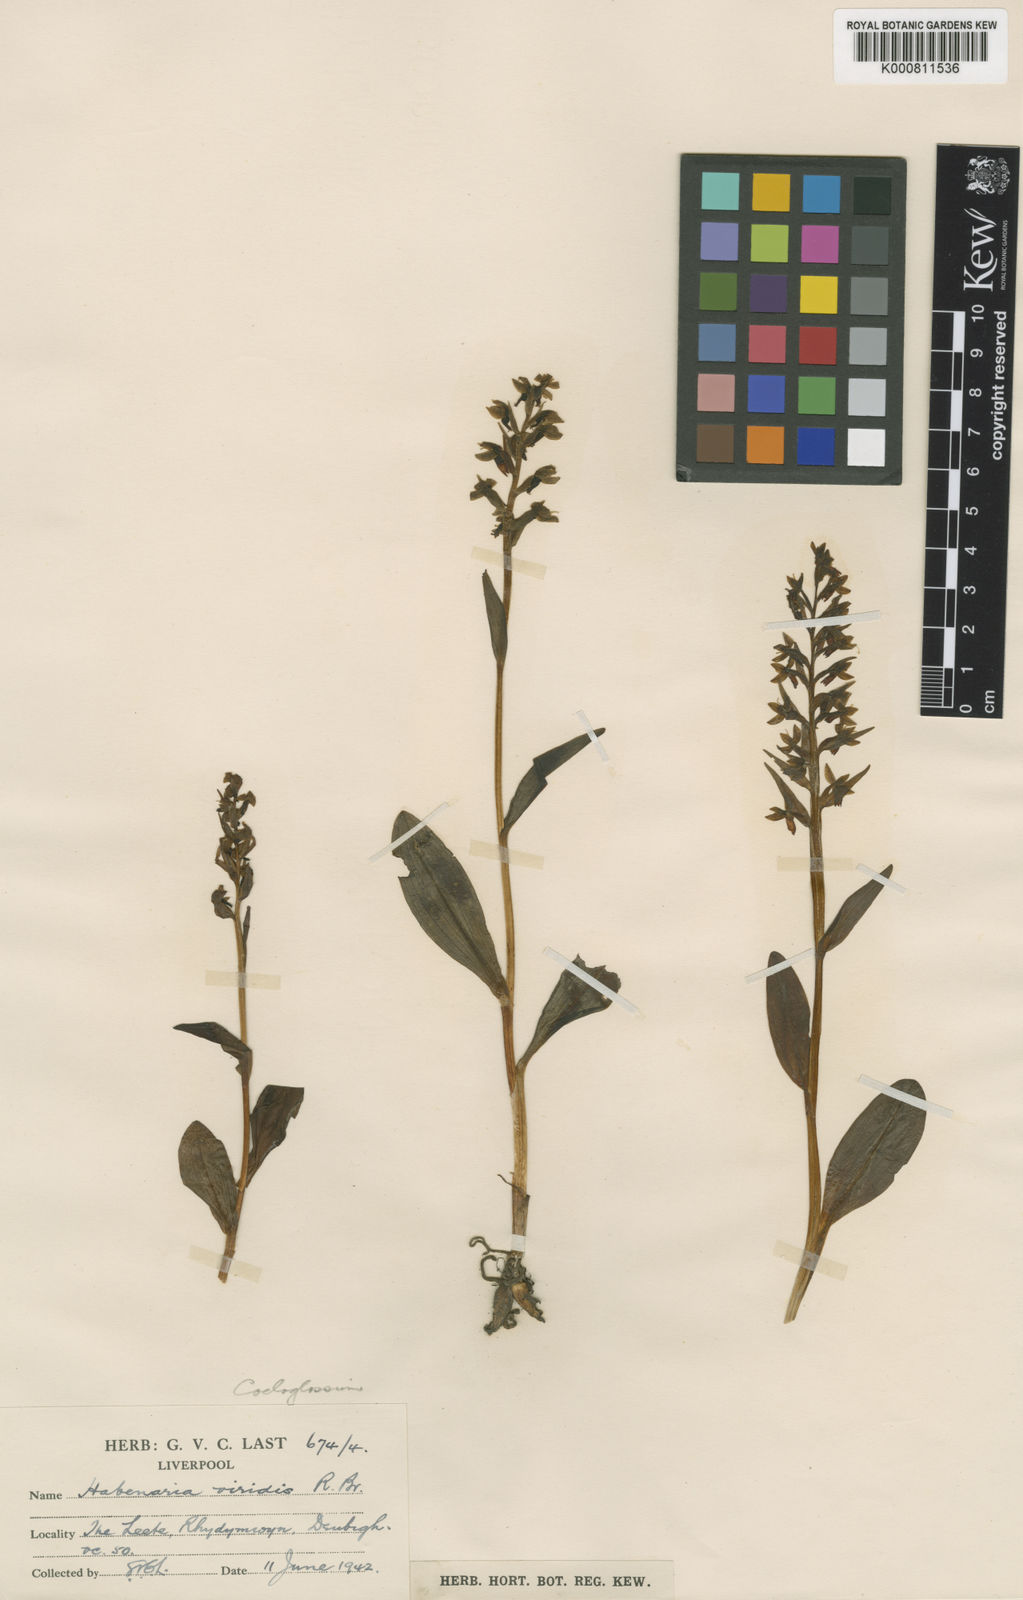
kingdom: Plantae
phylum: Tracheophyta
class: Liliopsida
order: Asparagales
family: Orchidaceae
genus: Dactylorhiza
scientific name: Dactylorhiza viridis
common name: Longbract frog orchid
